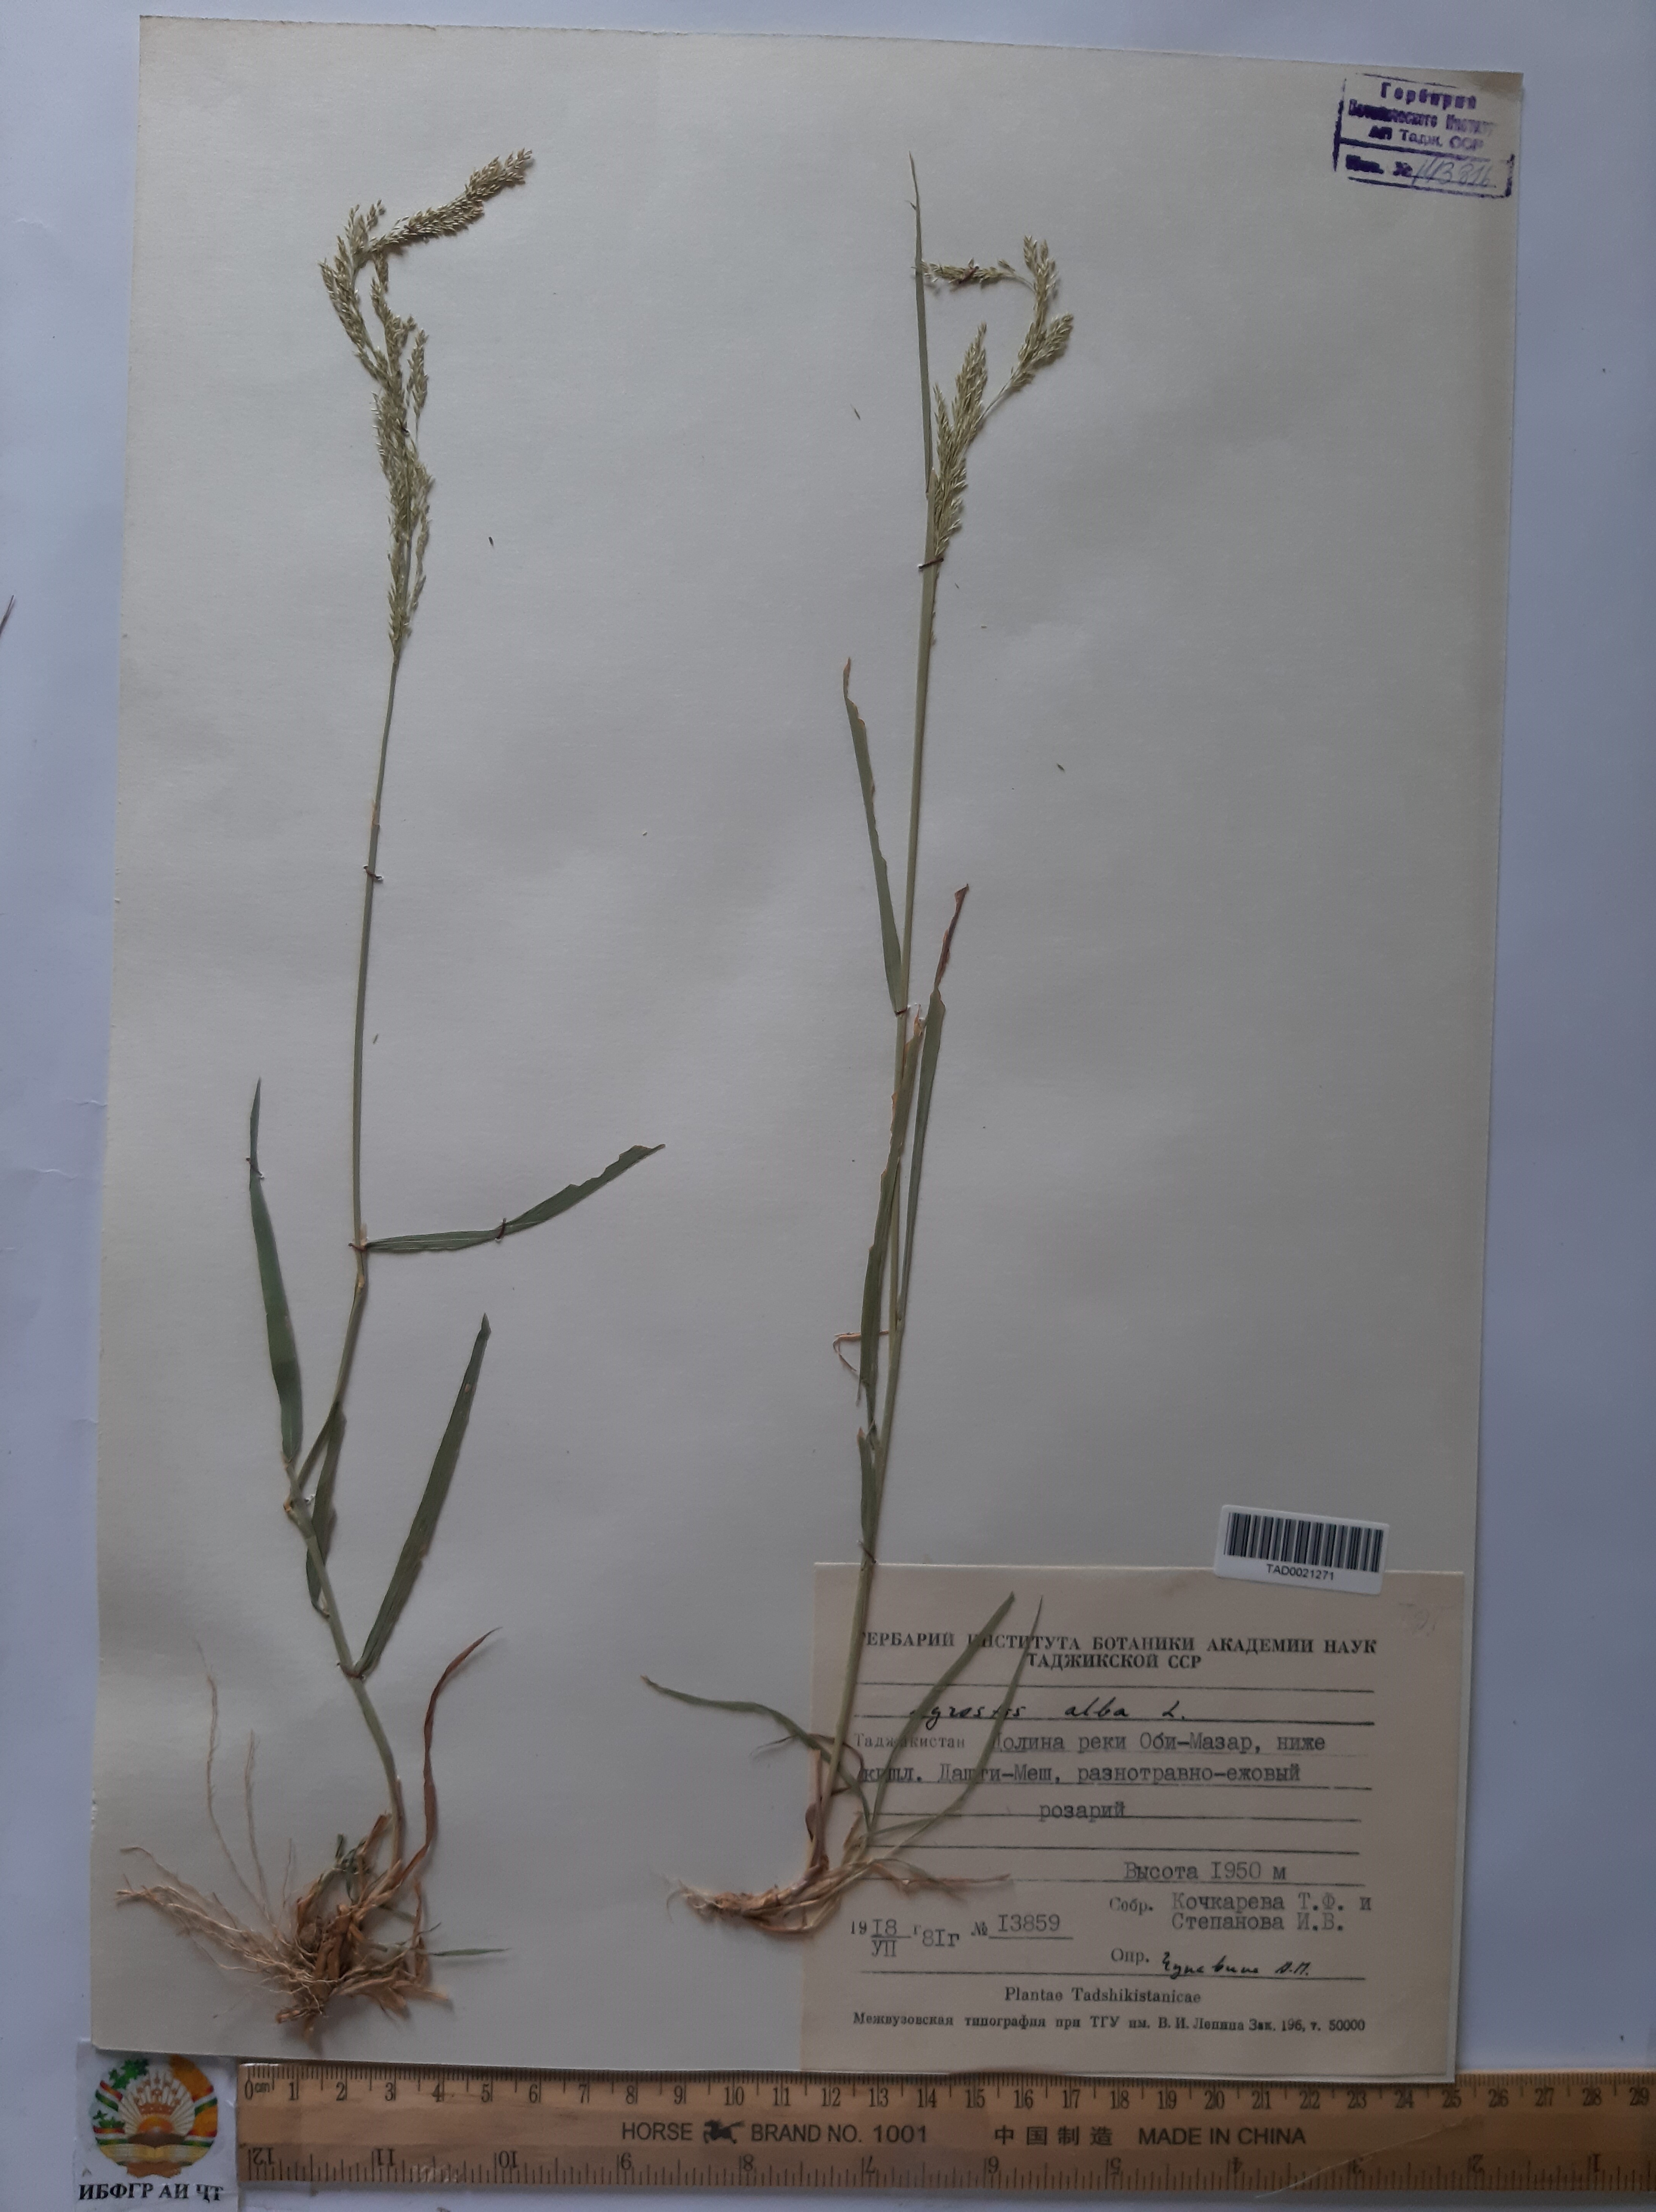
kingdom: Plantae
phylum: Tracheophyta
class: Liliopsida
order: Poales
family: Poaceae
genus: Poa
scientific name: Poa nemoralis
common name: Wood bluegrass
